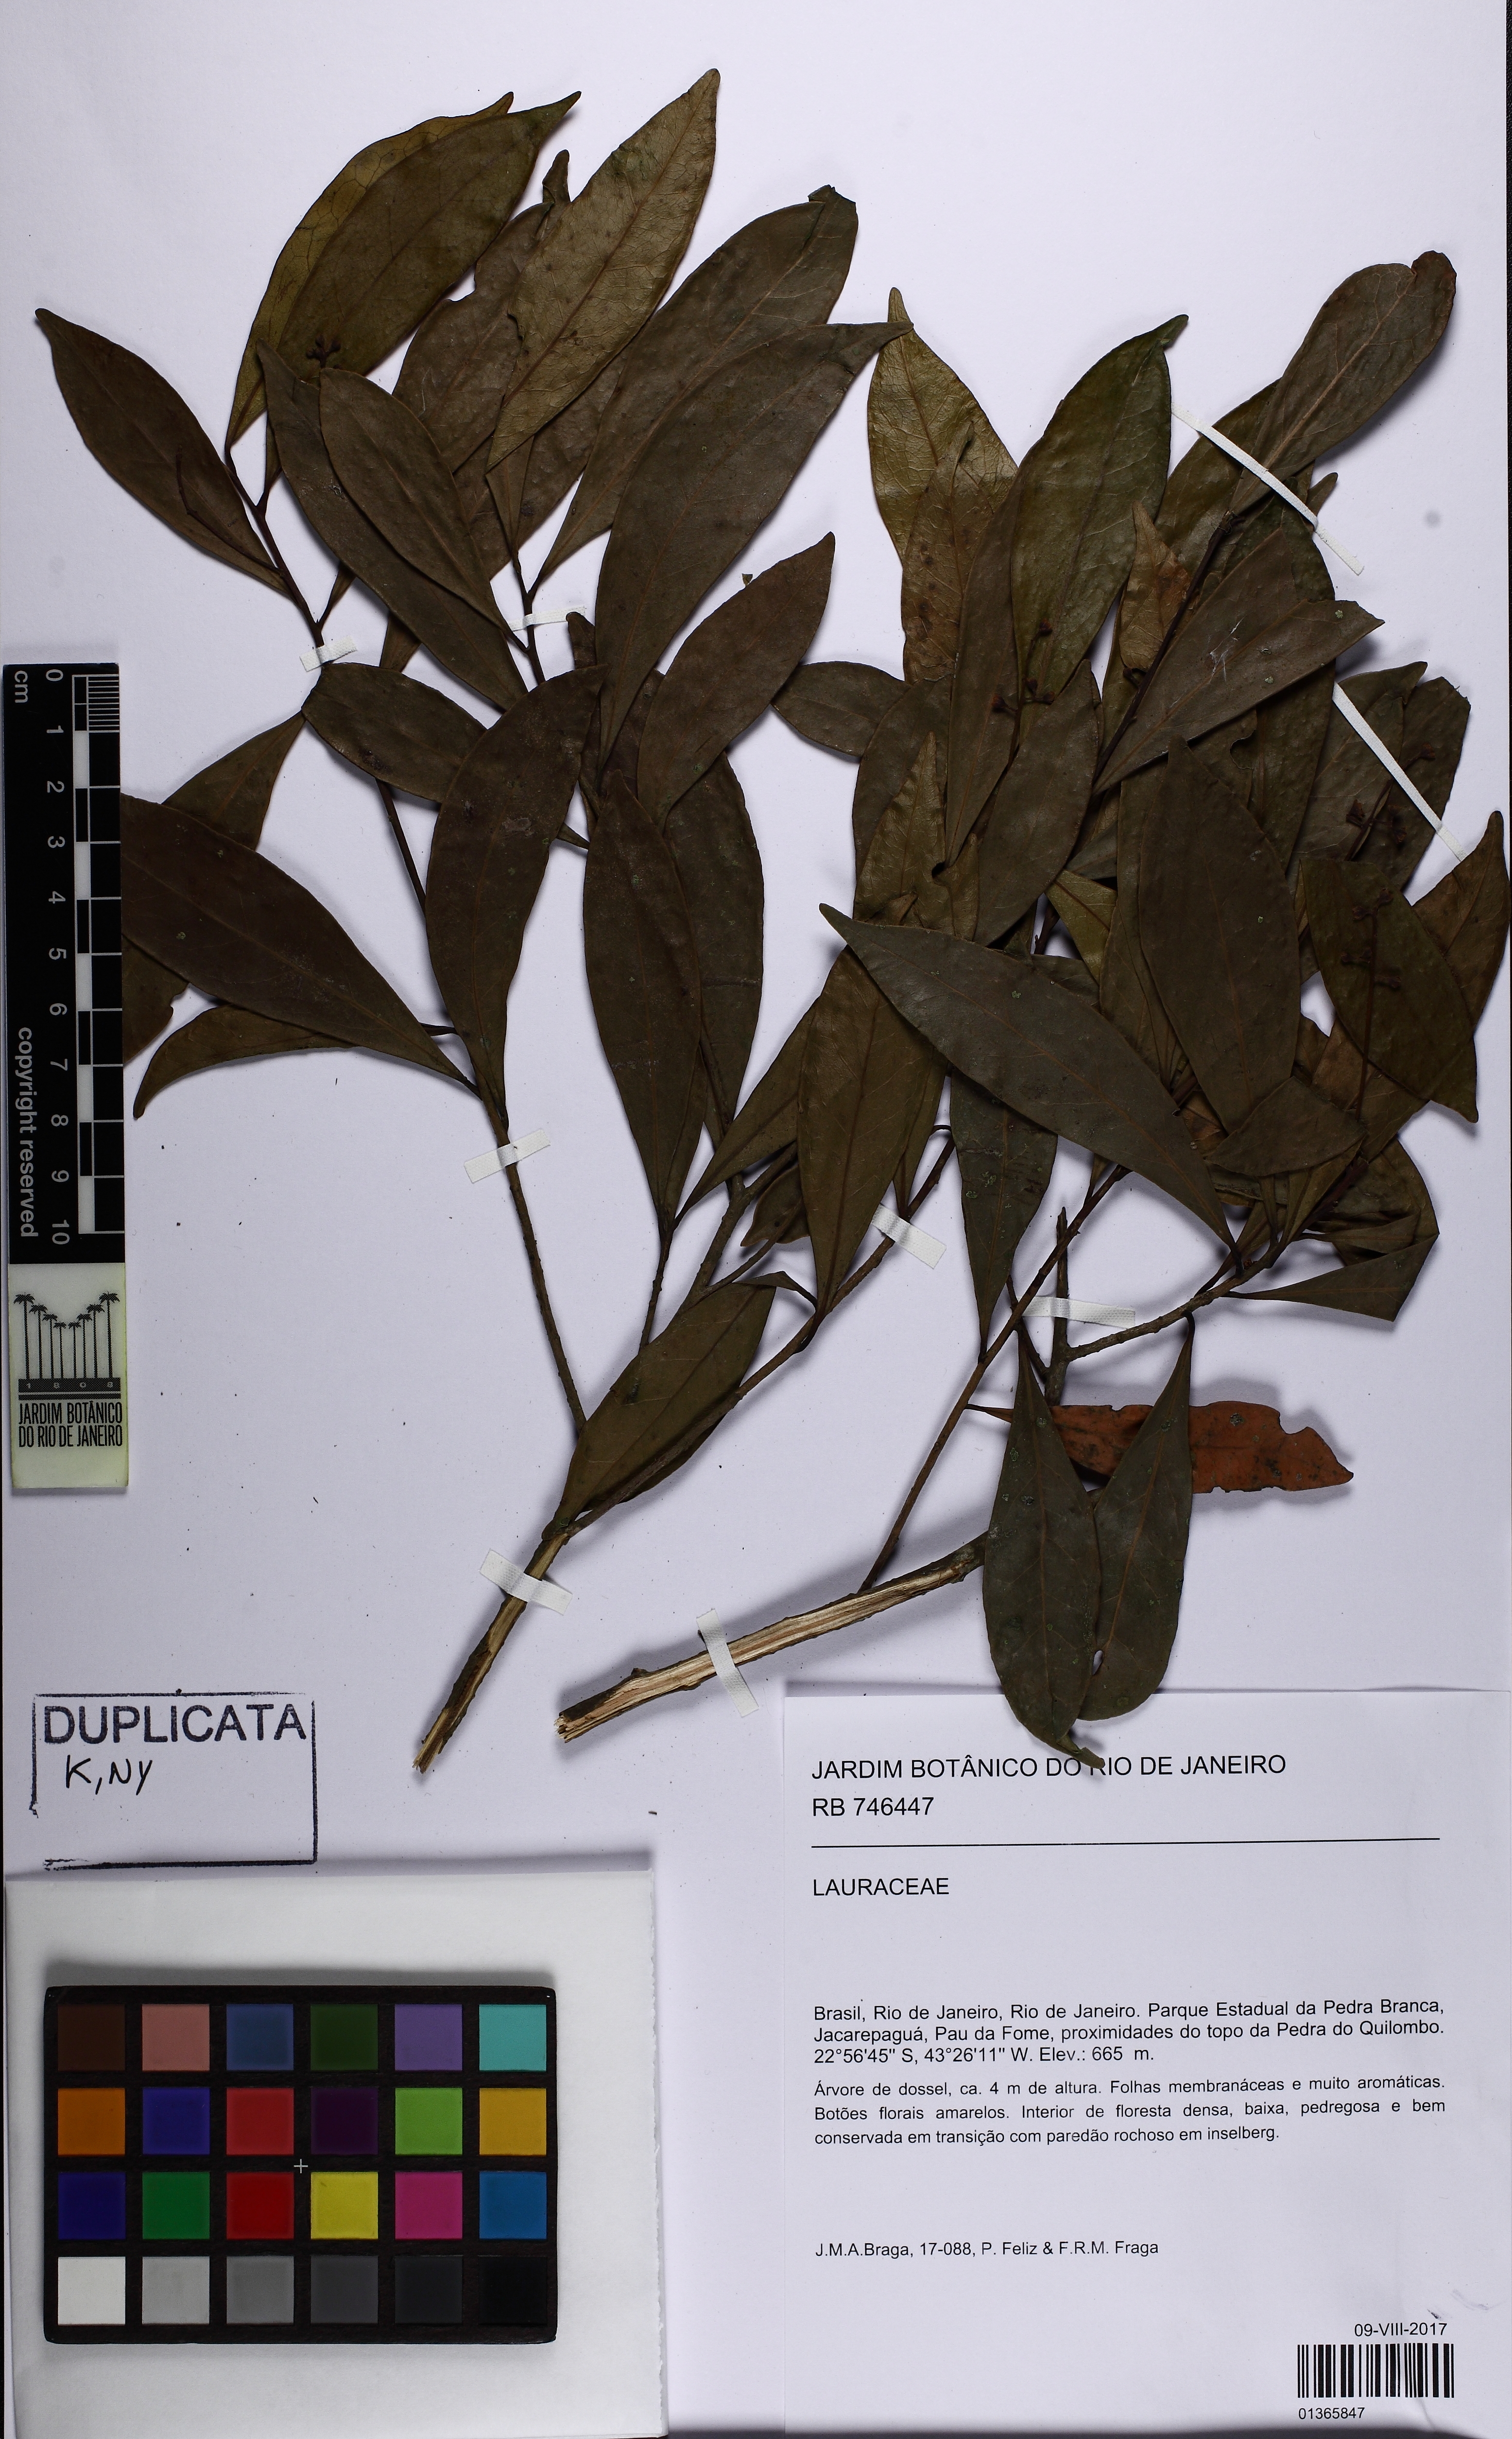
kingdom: Plantae
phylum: Tracheophyta
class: Magnoliopsida
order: Laurales
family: Lauraceae
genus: Ocotea
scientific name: Ocotea daphnifolia
